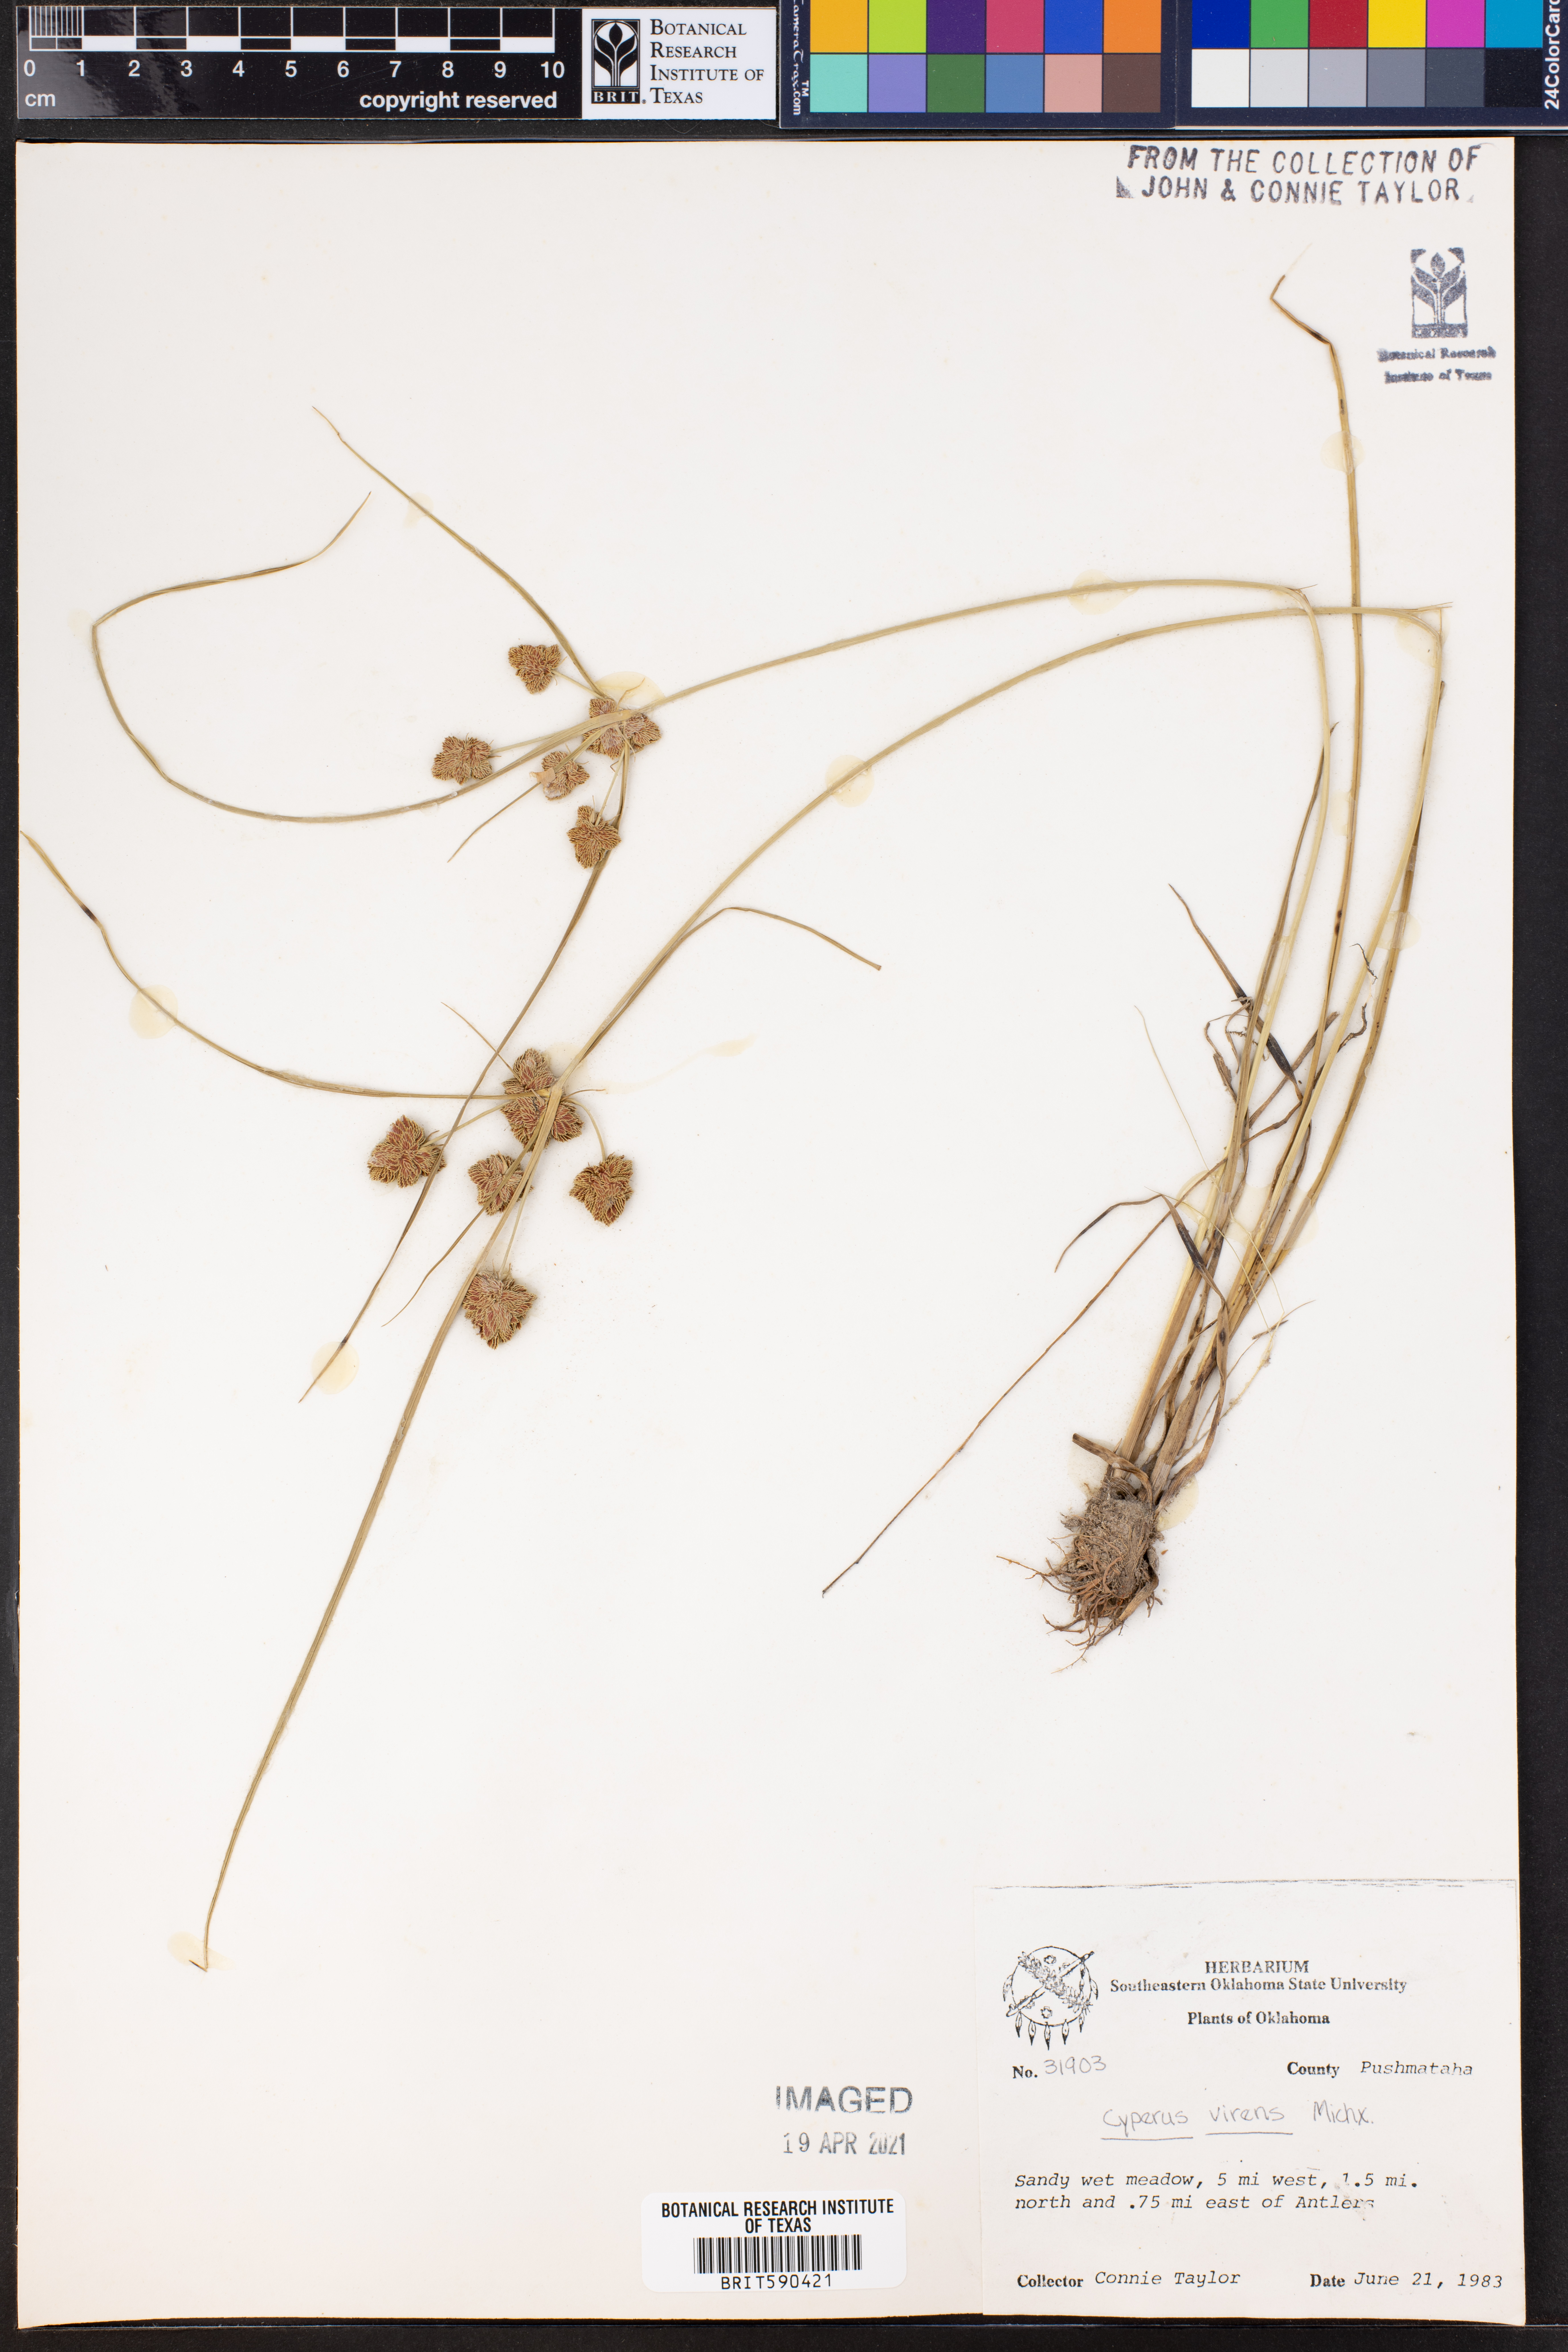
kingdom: Plantae
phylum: Tracheophyta
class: Liliopsida
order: Poales
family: Cyperaceae
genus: Cyperus
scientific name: Cyperus virens
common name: Green flatsedge
